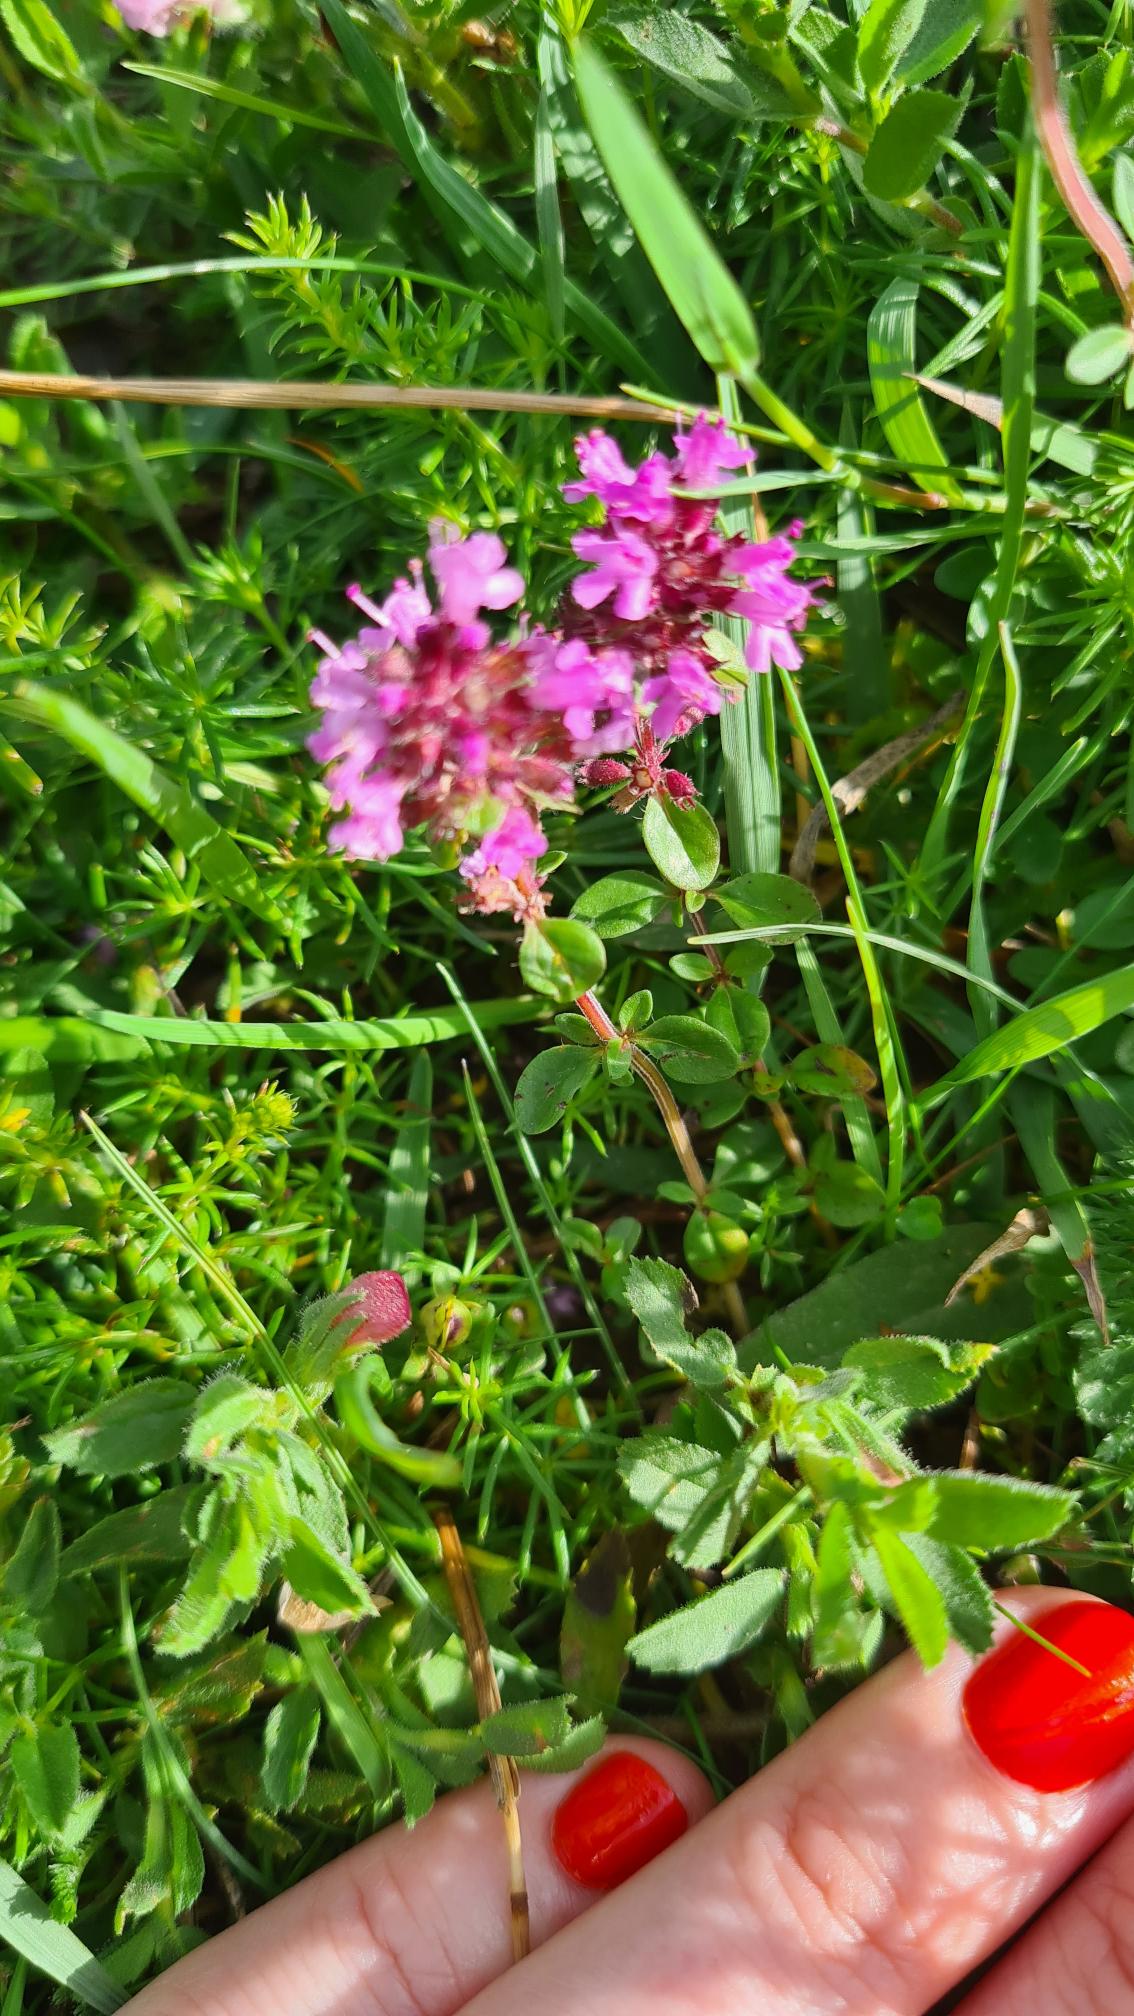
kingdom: Plantae
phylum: Tracheophyta
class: Magnoliopsida
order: Lamiales
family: Lamiaceae
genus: Thymus
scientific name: Thymus pulegioides
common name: Bredbladet timian
